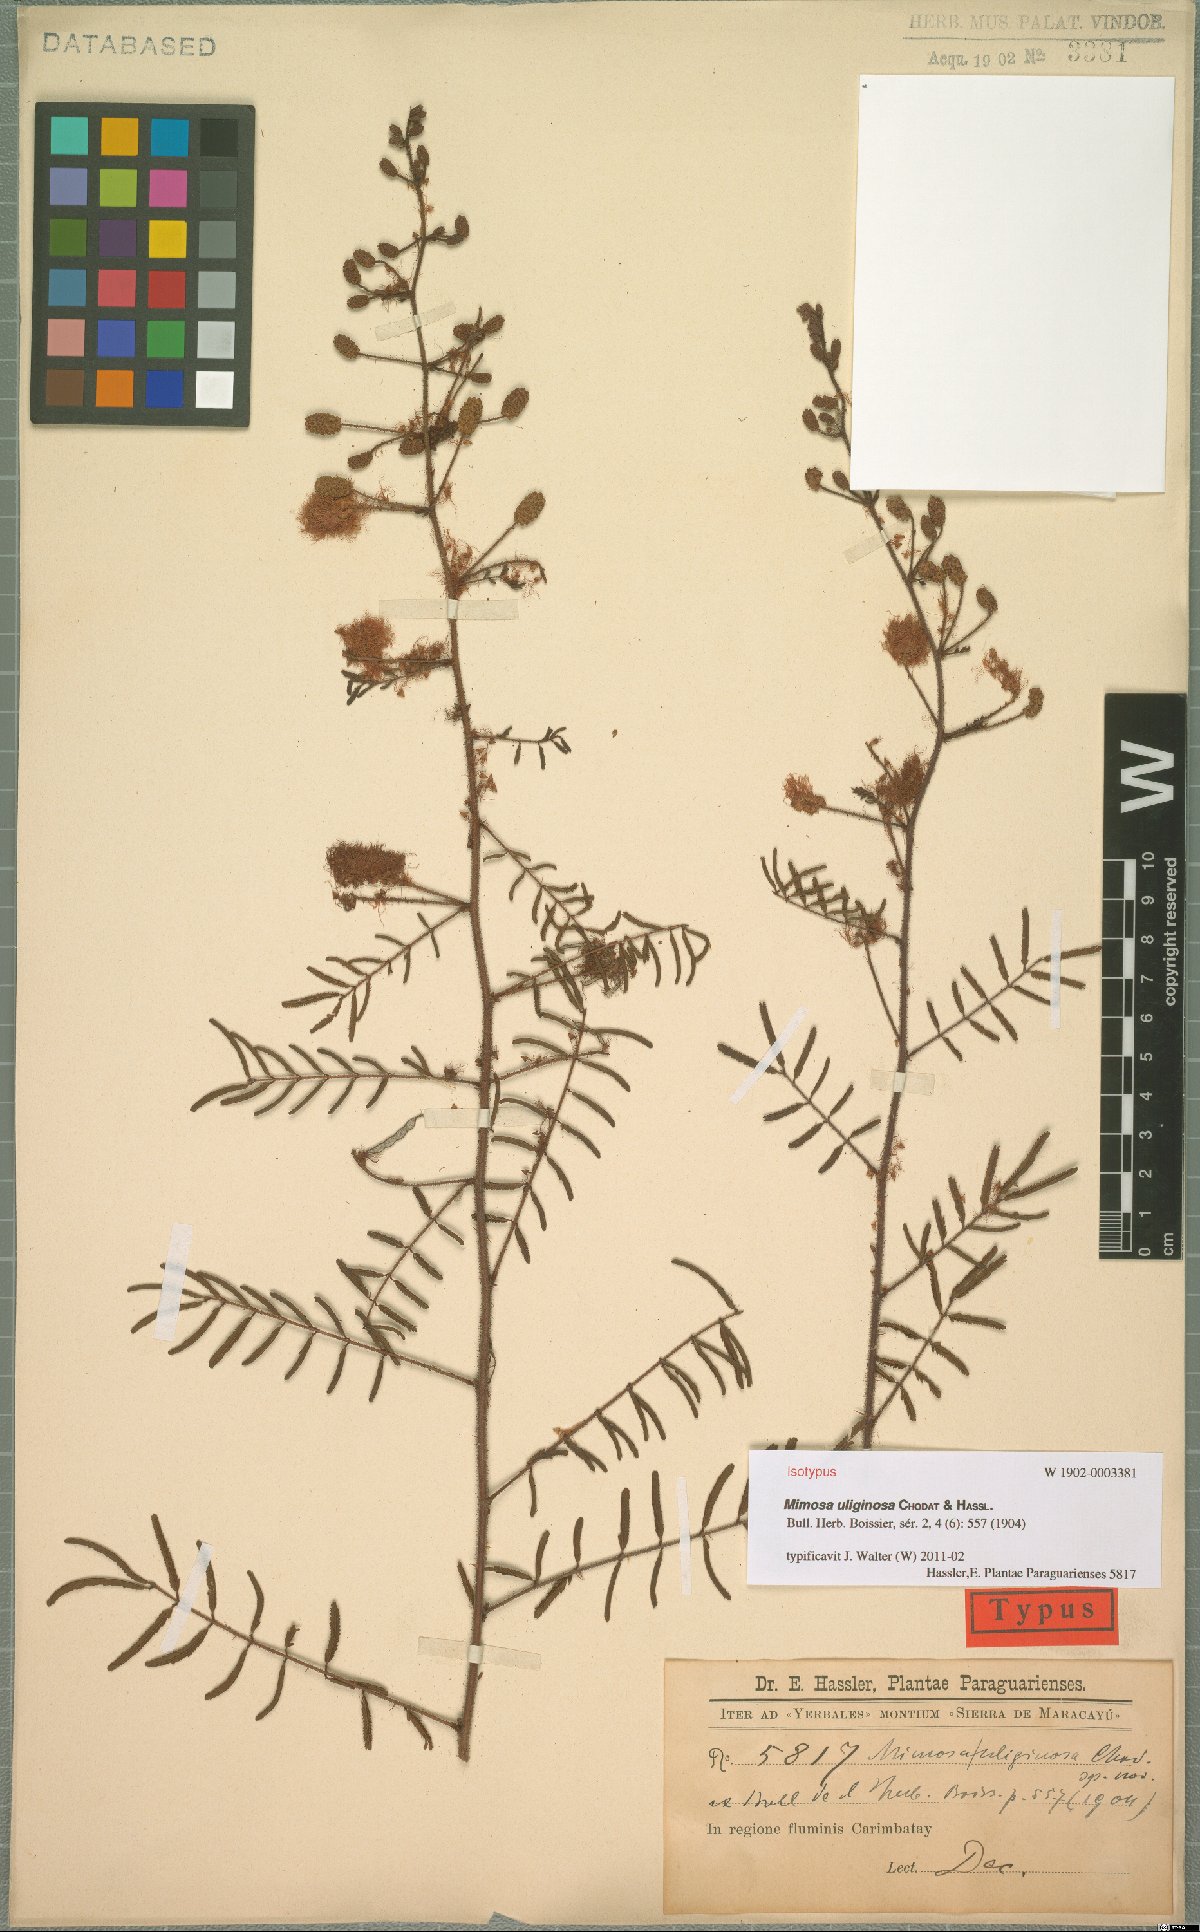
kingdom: Plantae
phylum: Tracheophyta
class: Magnoliopsida
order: Fabales
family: Fabaceae
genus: Mimosa
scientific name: Mimosa uliginosa
